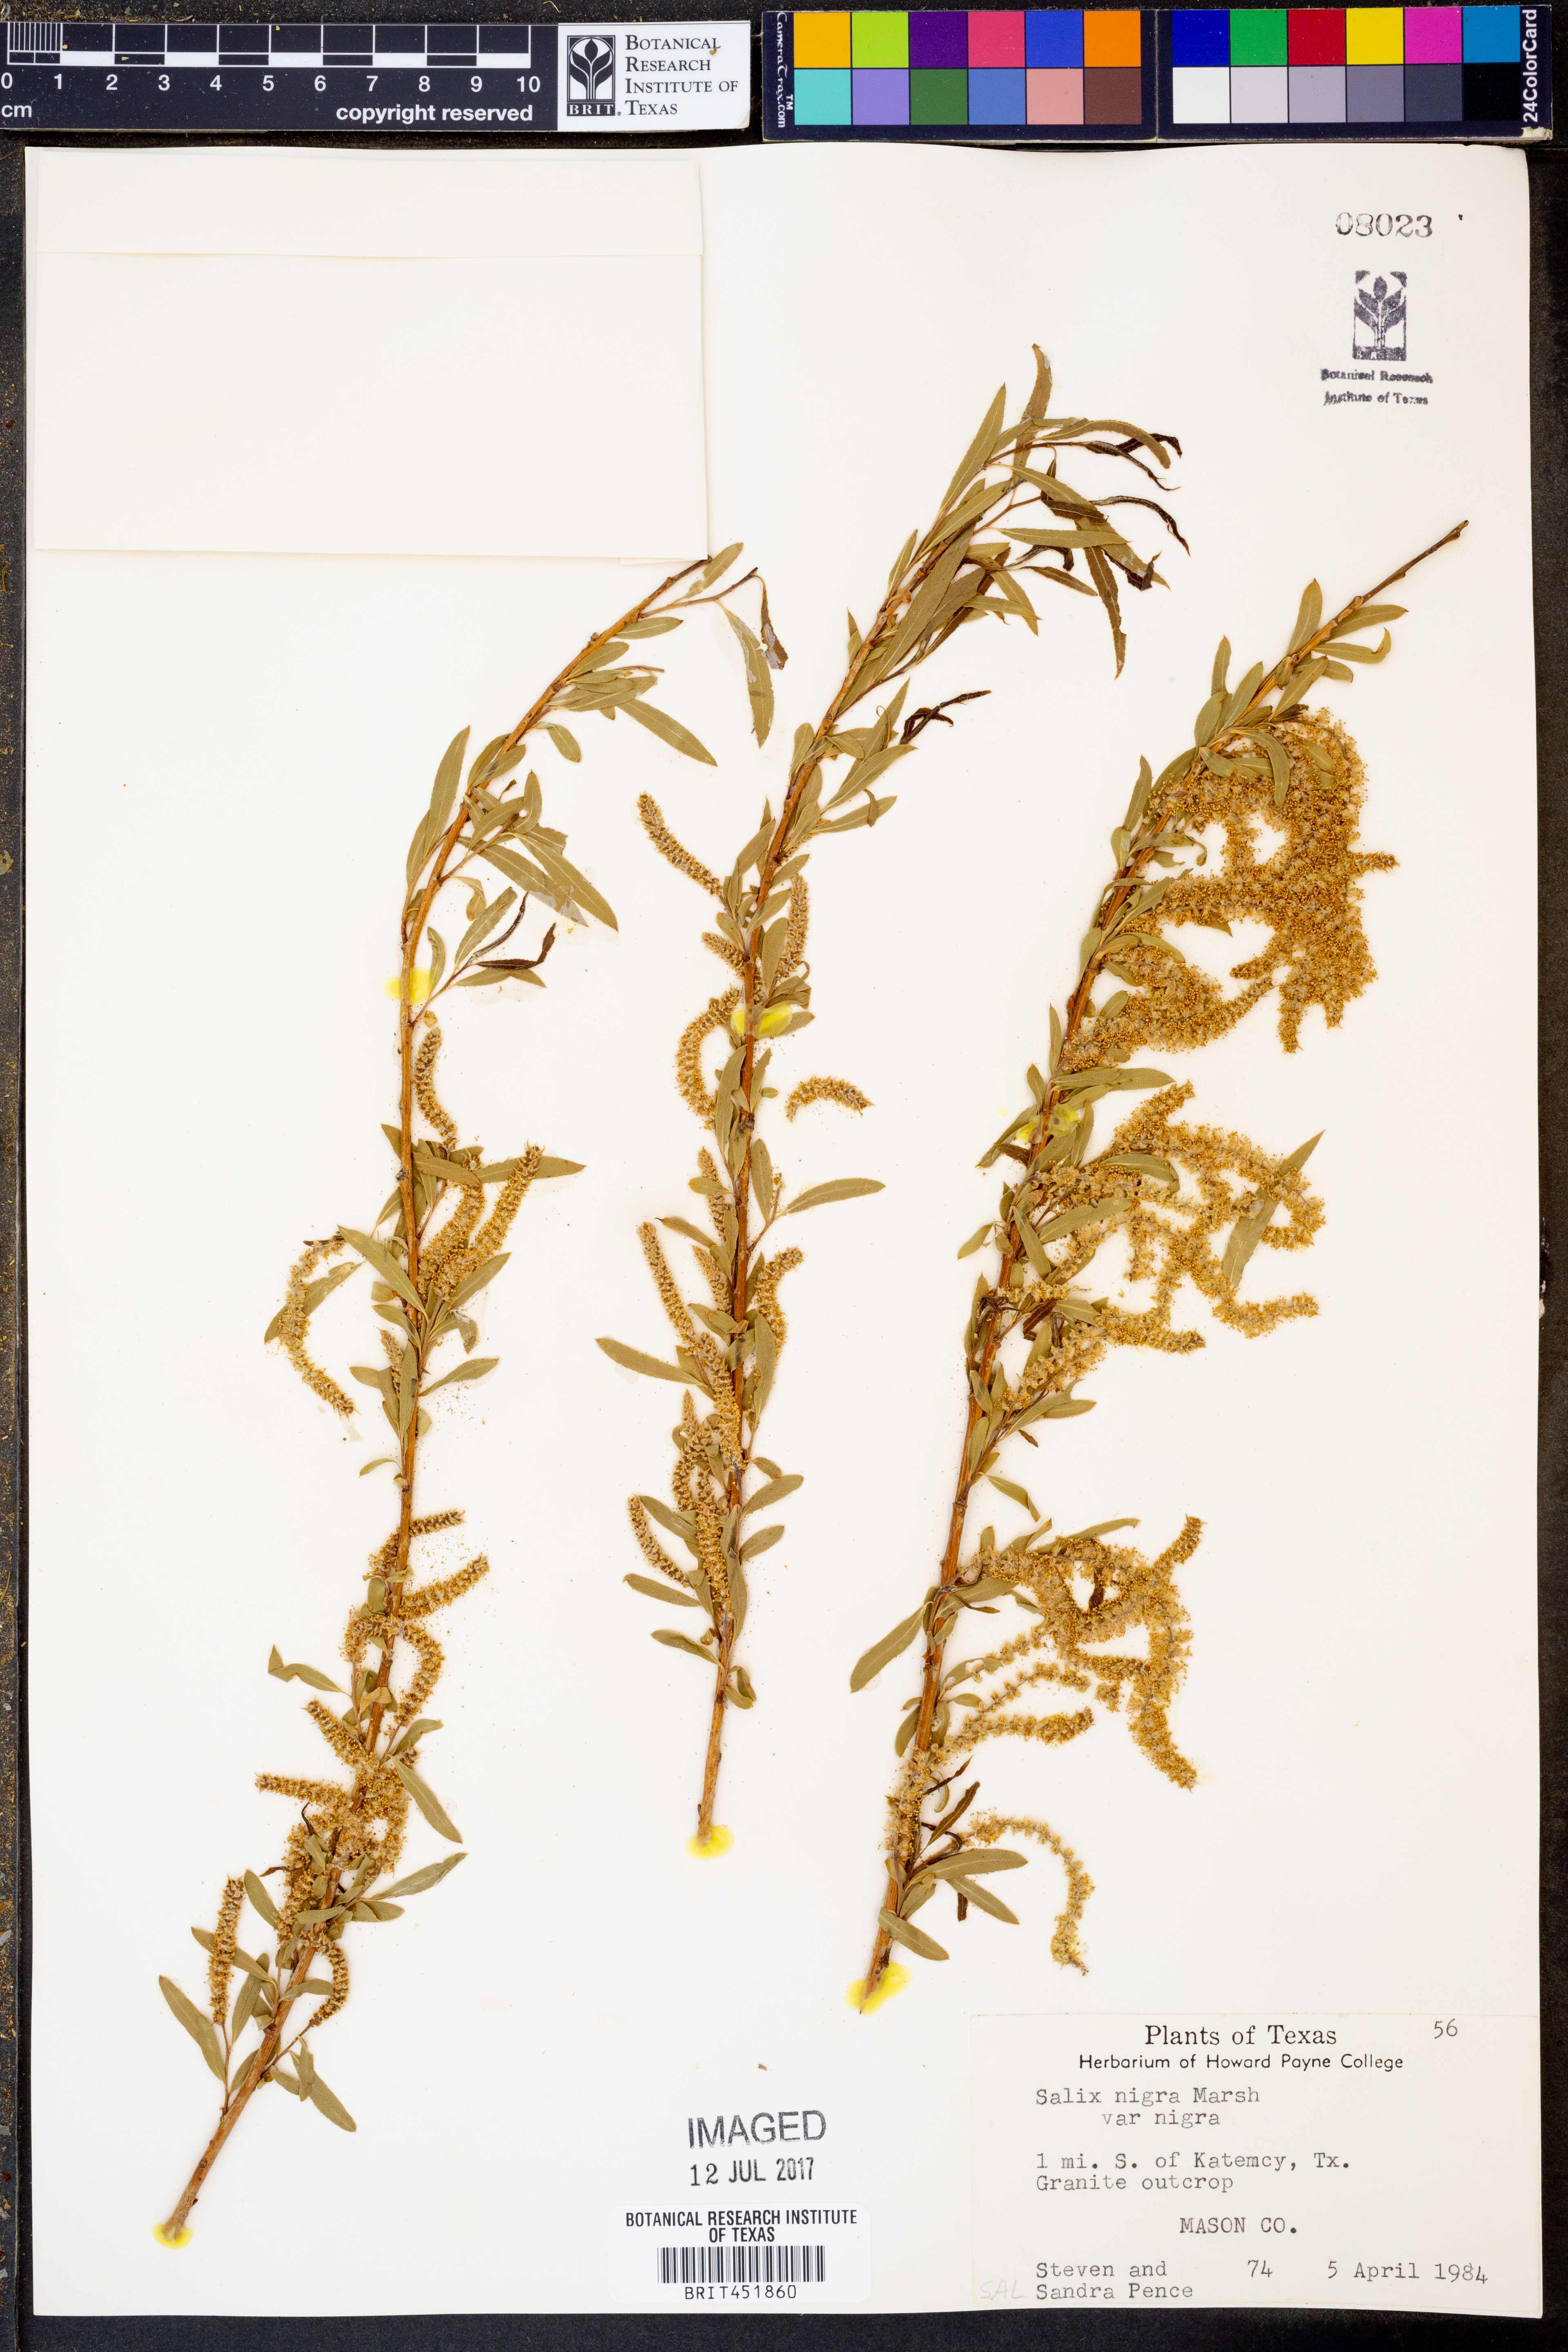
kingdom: Plantae
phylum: Tracheophyta
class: Magnoliopsida
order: Malpighiales
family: Salicaceae
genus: Salix
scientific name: Salix nigra
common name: Black willow
